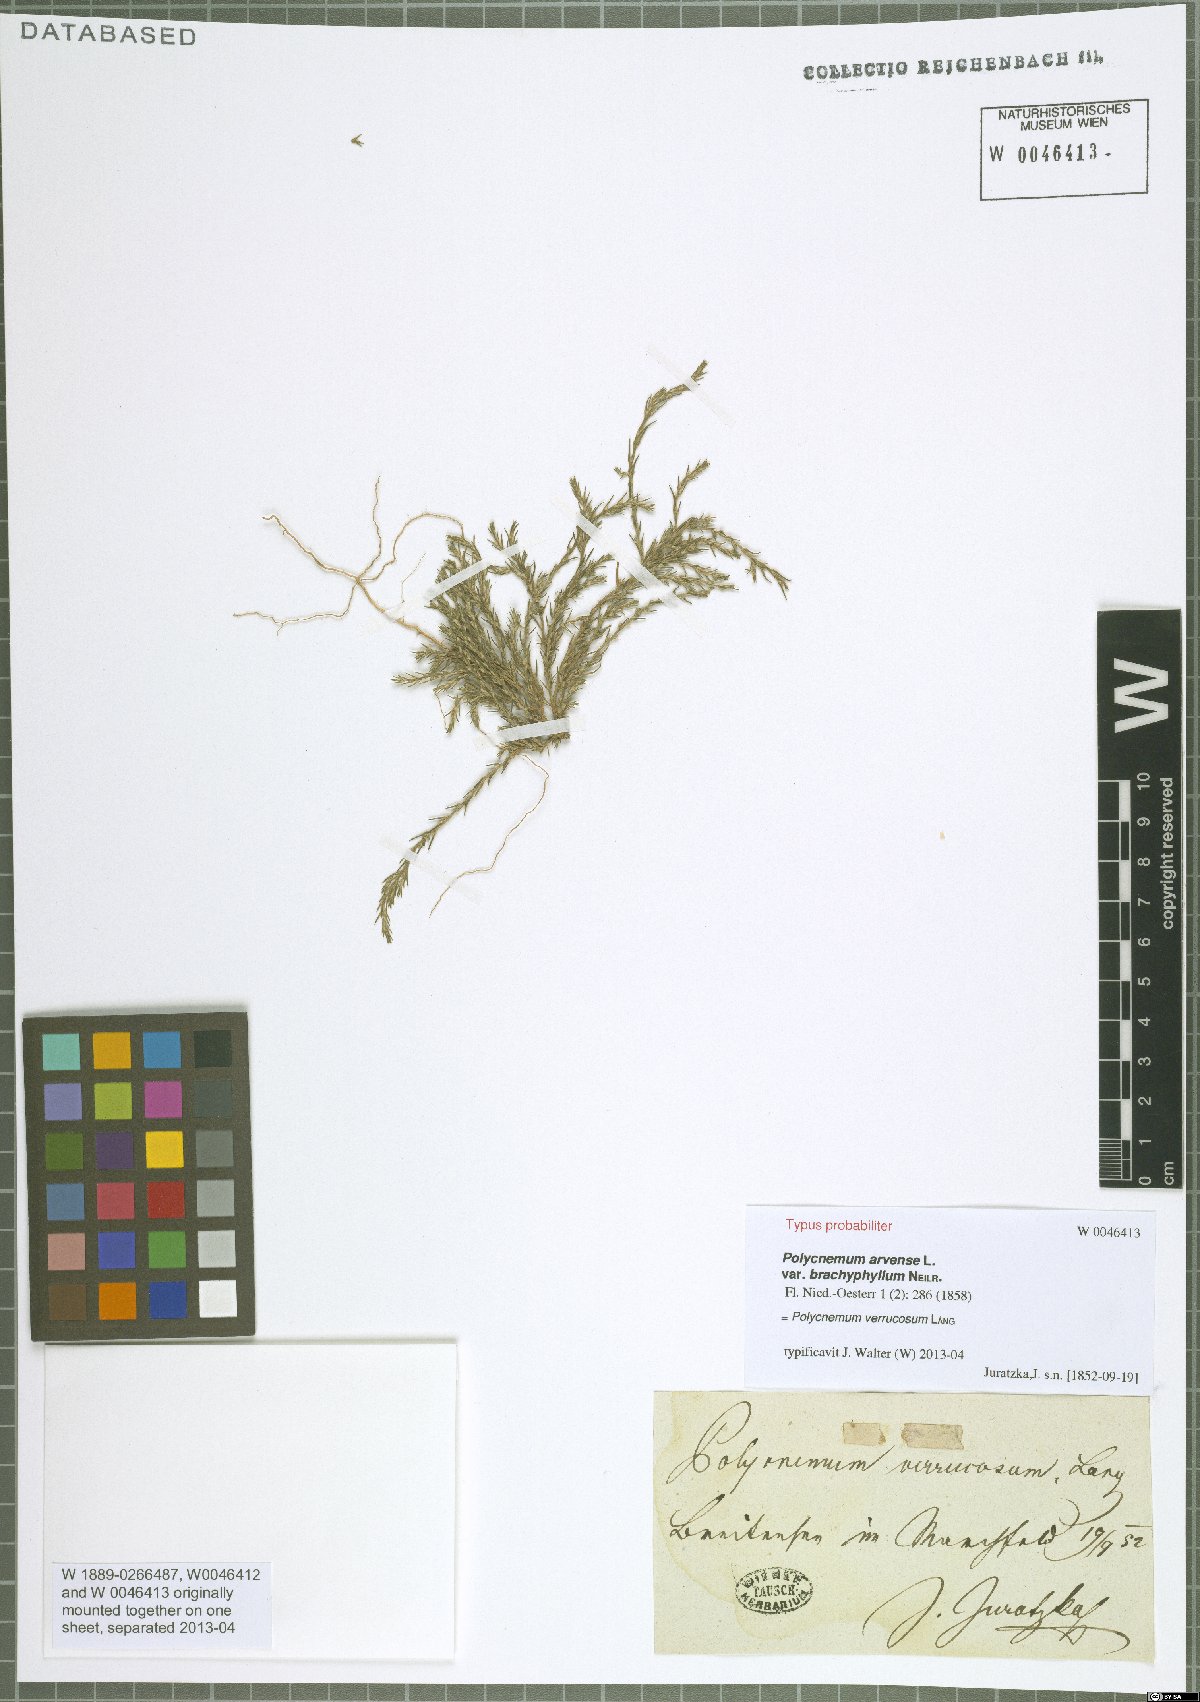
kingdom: Plantae
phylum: Tracheophyta
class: Magnoliopsida
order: Caryophyllales
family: Amaranthaceae
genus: Polycnemum
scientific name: Polycnemum verrucosum
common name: Warty needleleaf
